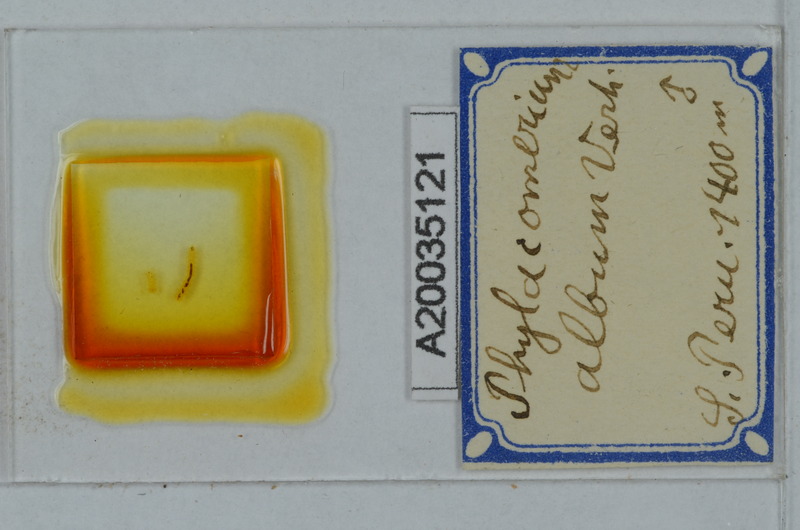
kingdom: Animalia
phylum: Arthropoda
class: Diplopoda
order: Polydesmida
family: Fuhrmannodesmidae
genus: Phylacomerium
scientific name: Phylacomerium album
